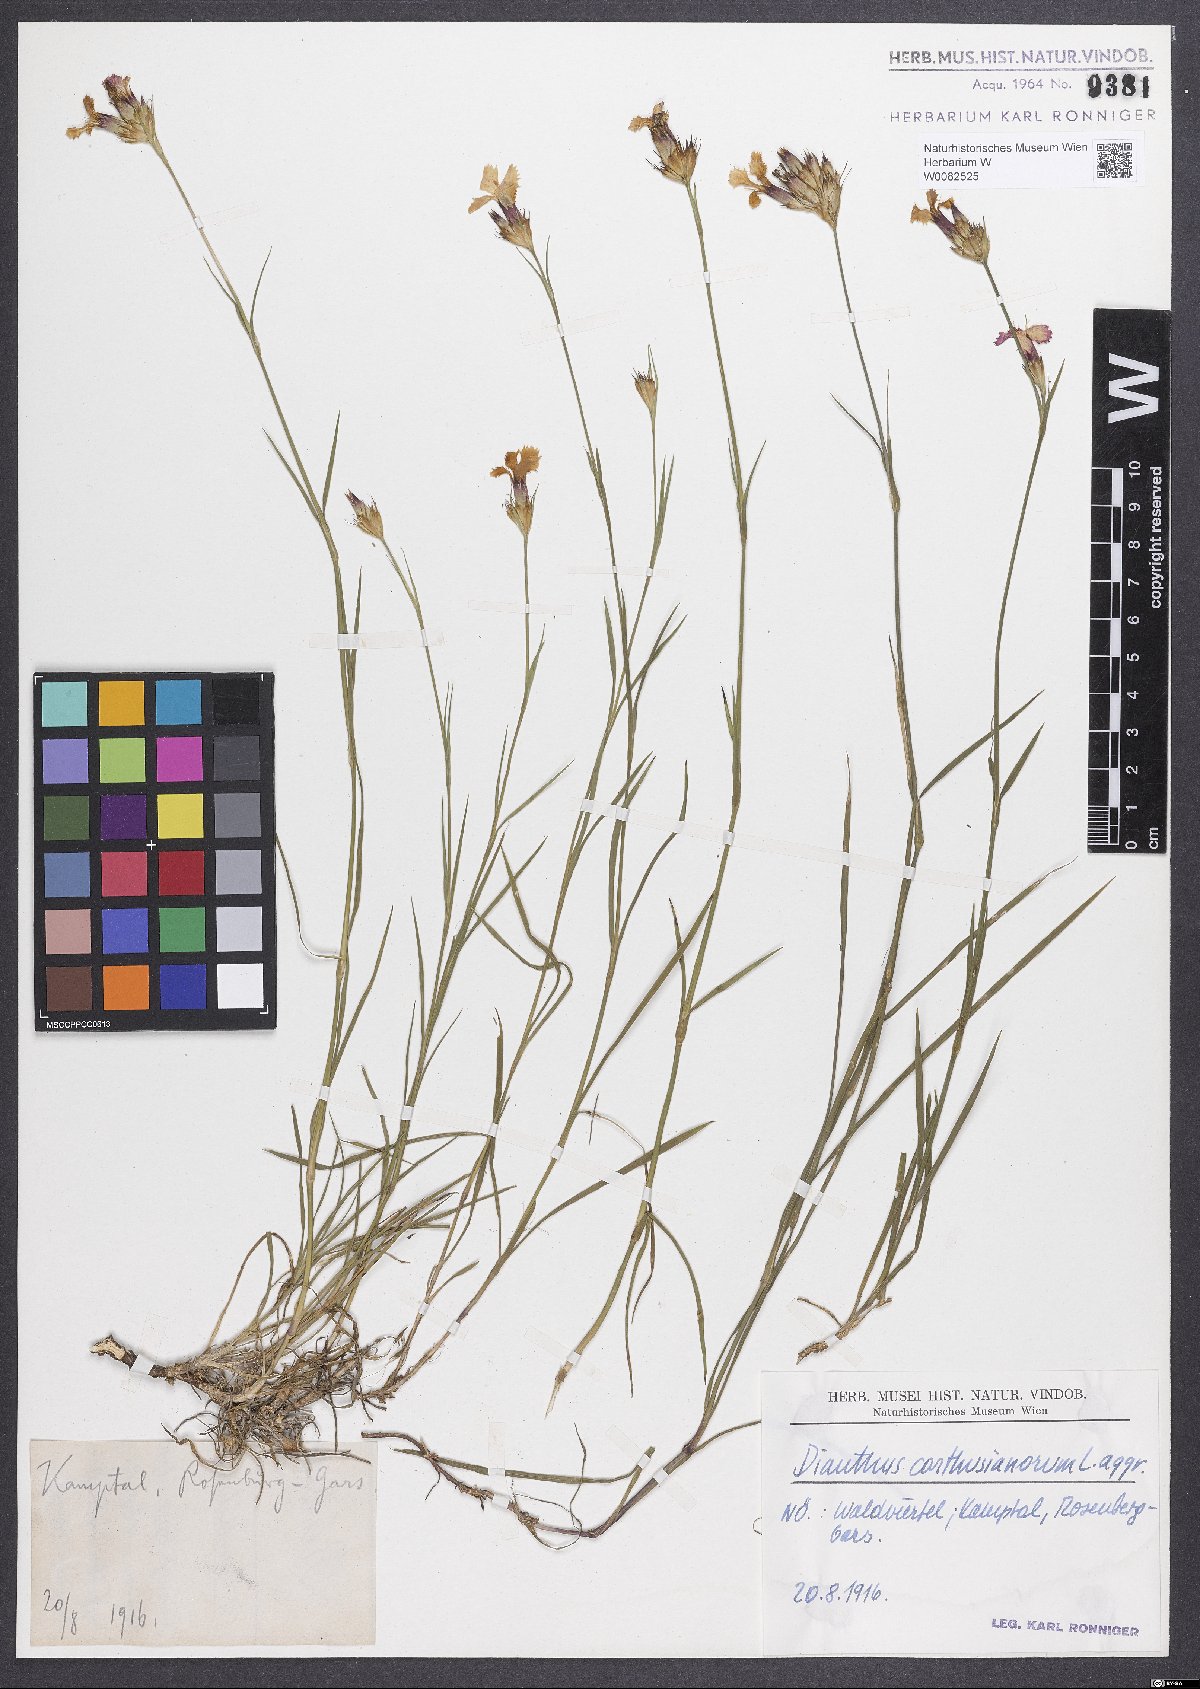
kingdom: Plantae
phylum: Tracheophyta
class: Magnoliopsida
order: Caryophyllales
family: Caryophyllaceae
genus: Dianthus
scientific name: Dianthus carthusianorum
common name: Carthusian pink
